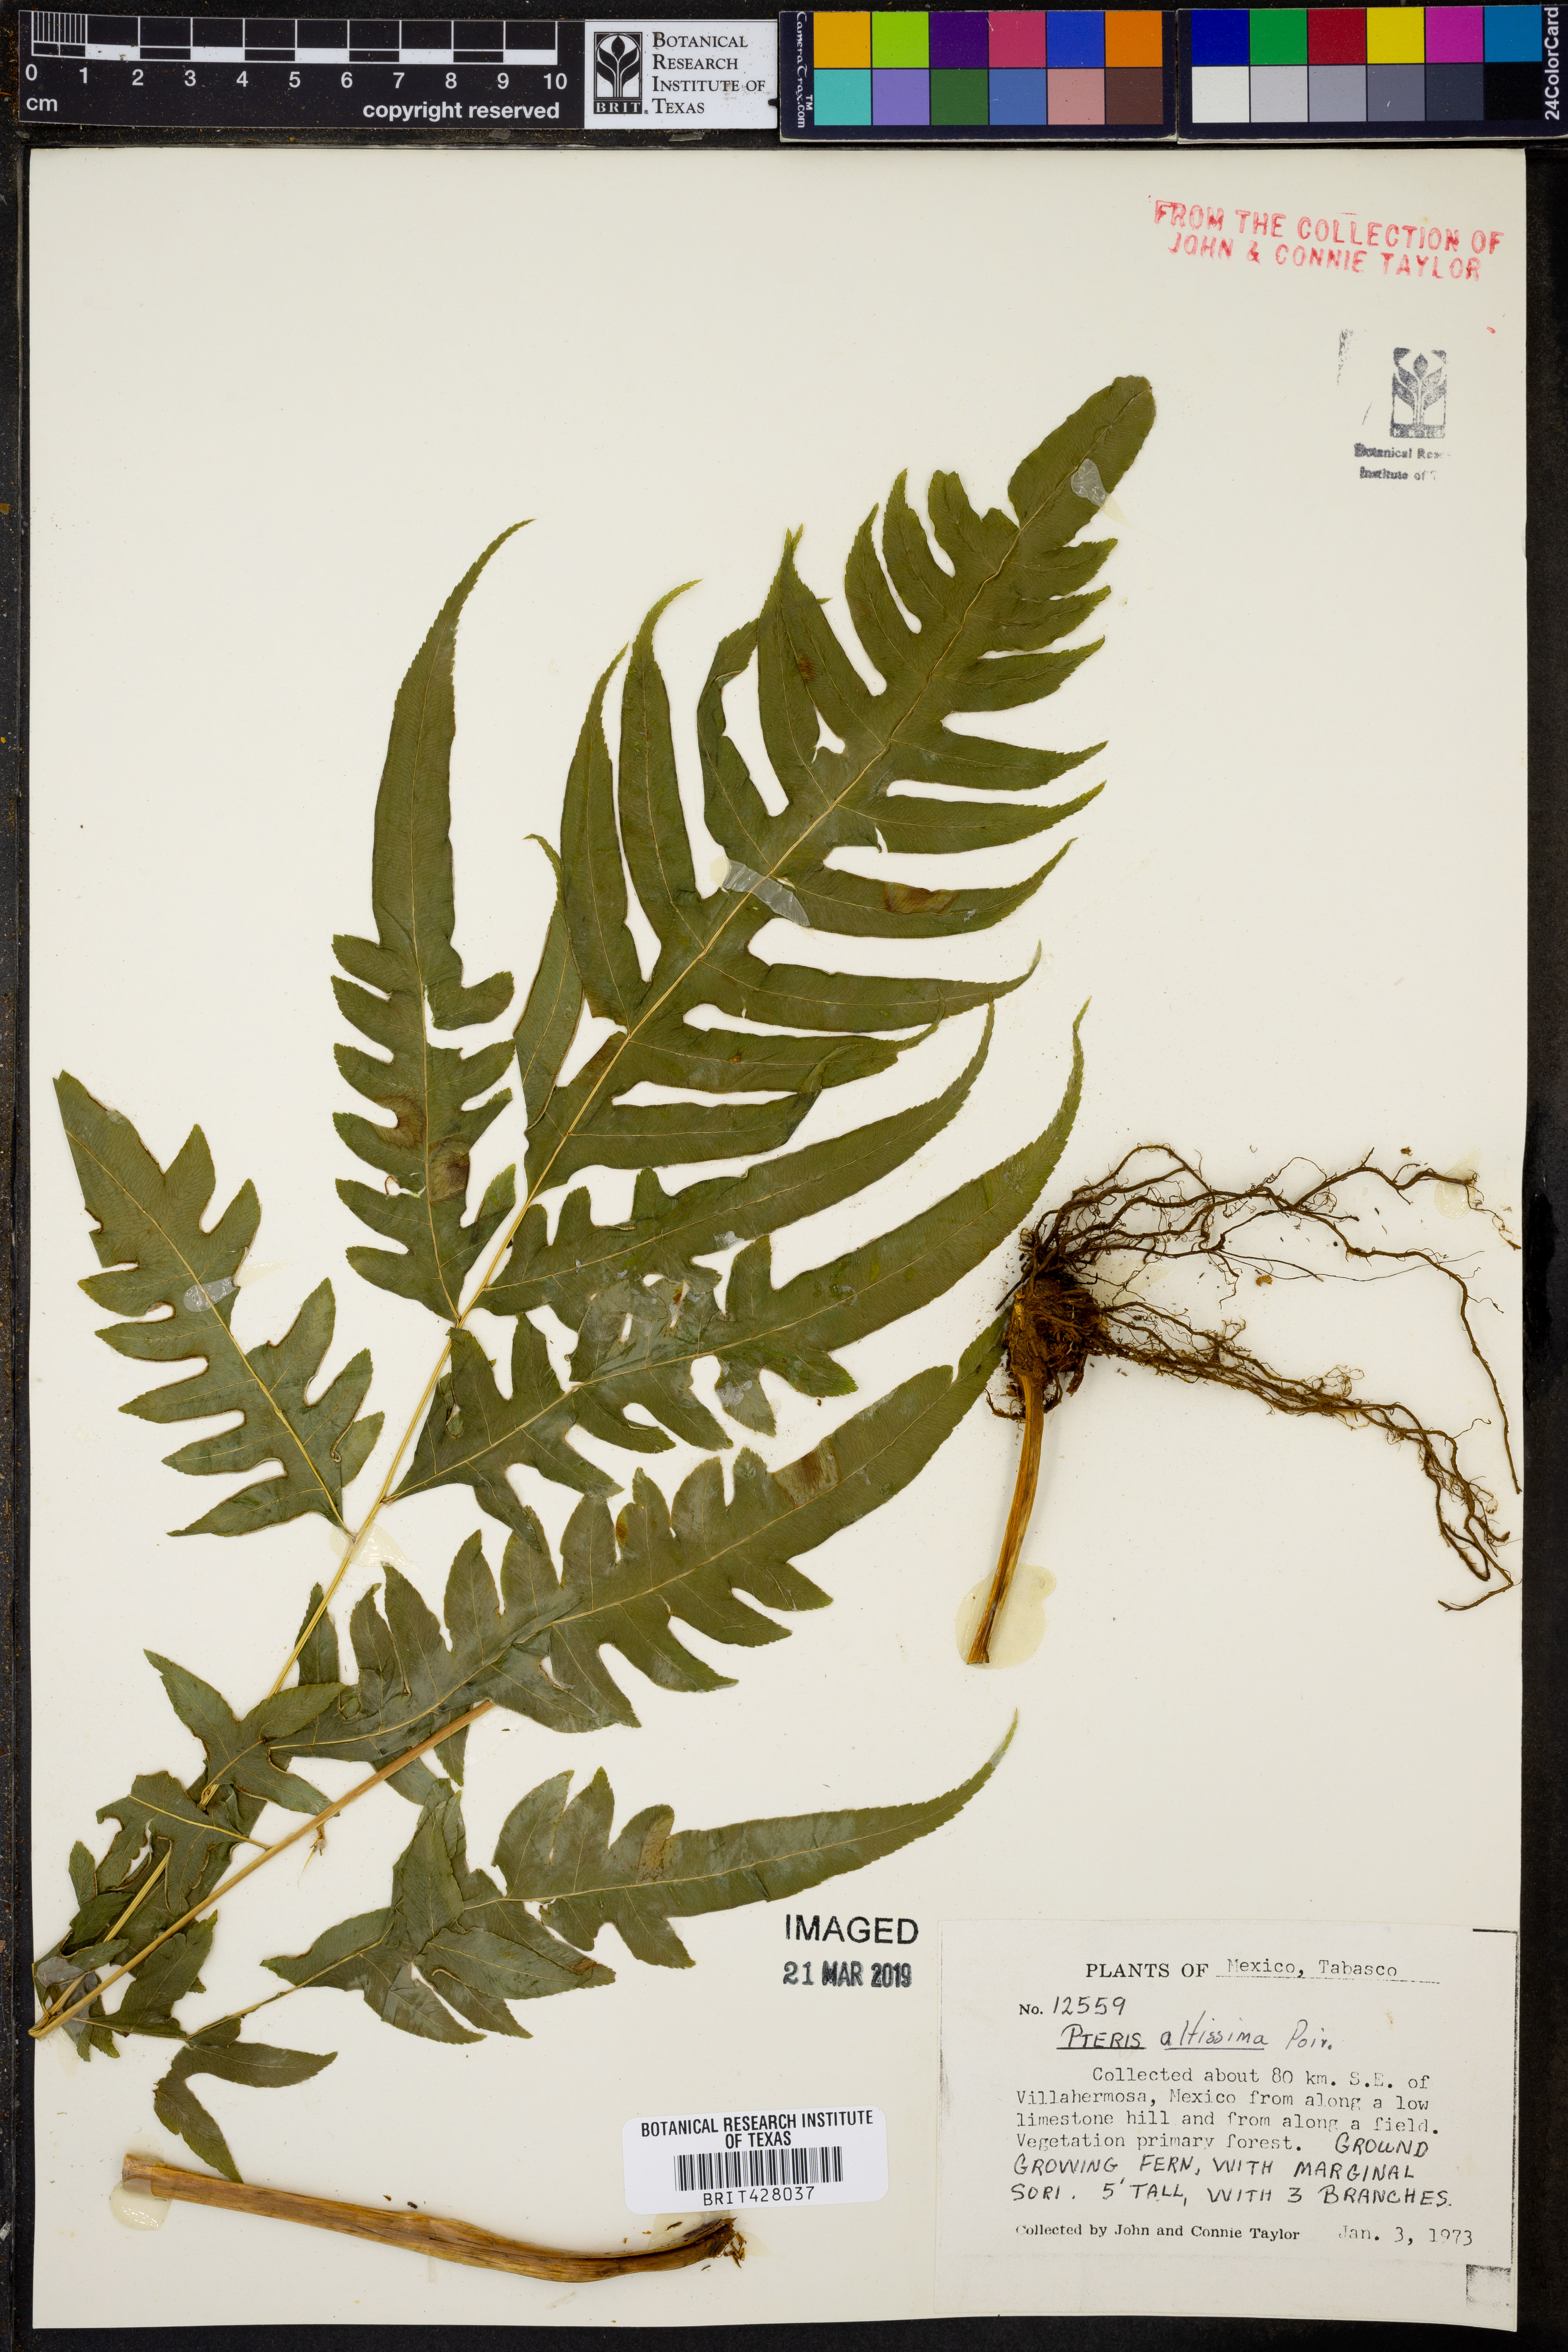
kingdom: Plantae
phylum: Tracheophyta
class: Polypodiopsida
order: Polypodiales
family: Pteridaceae
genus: Pteris
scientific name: Pteris altissima
